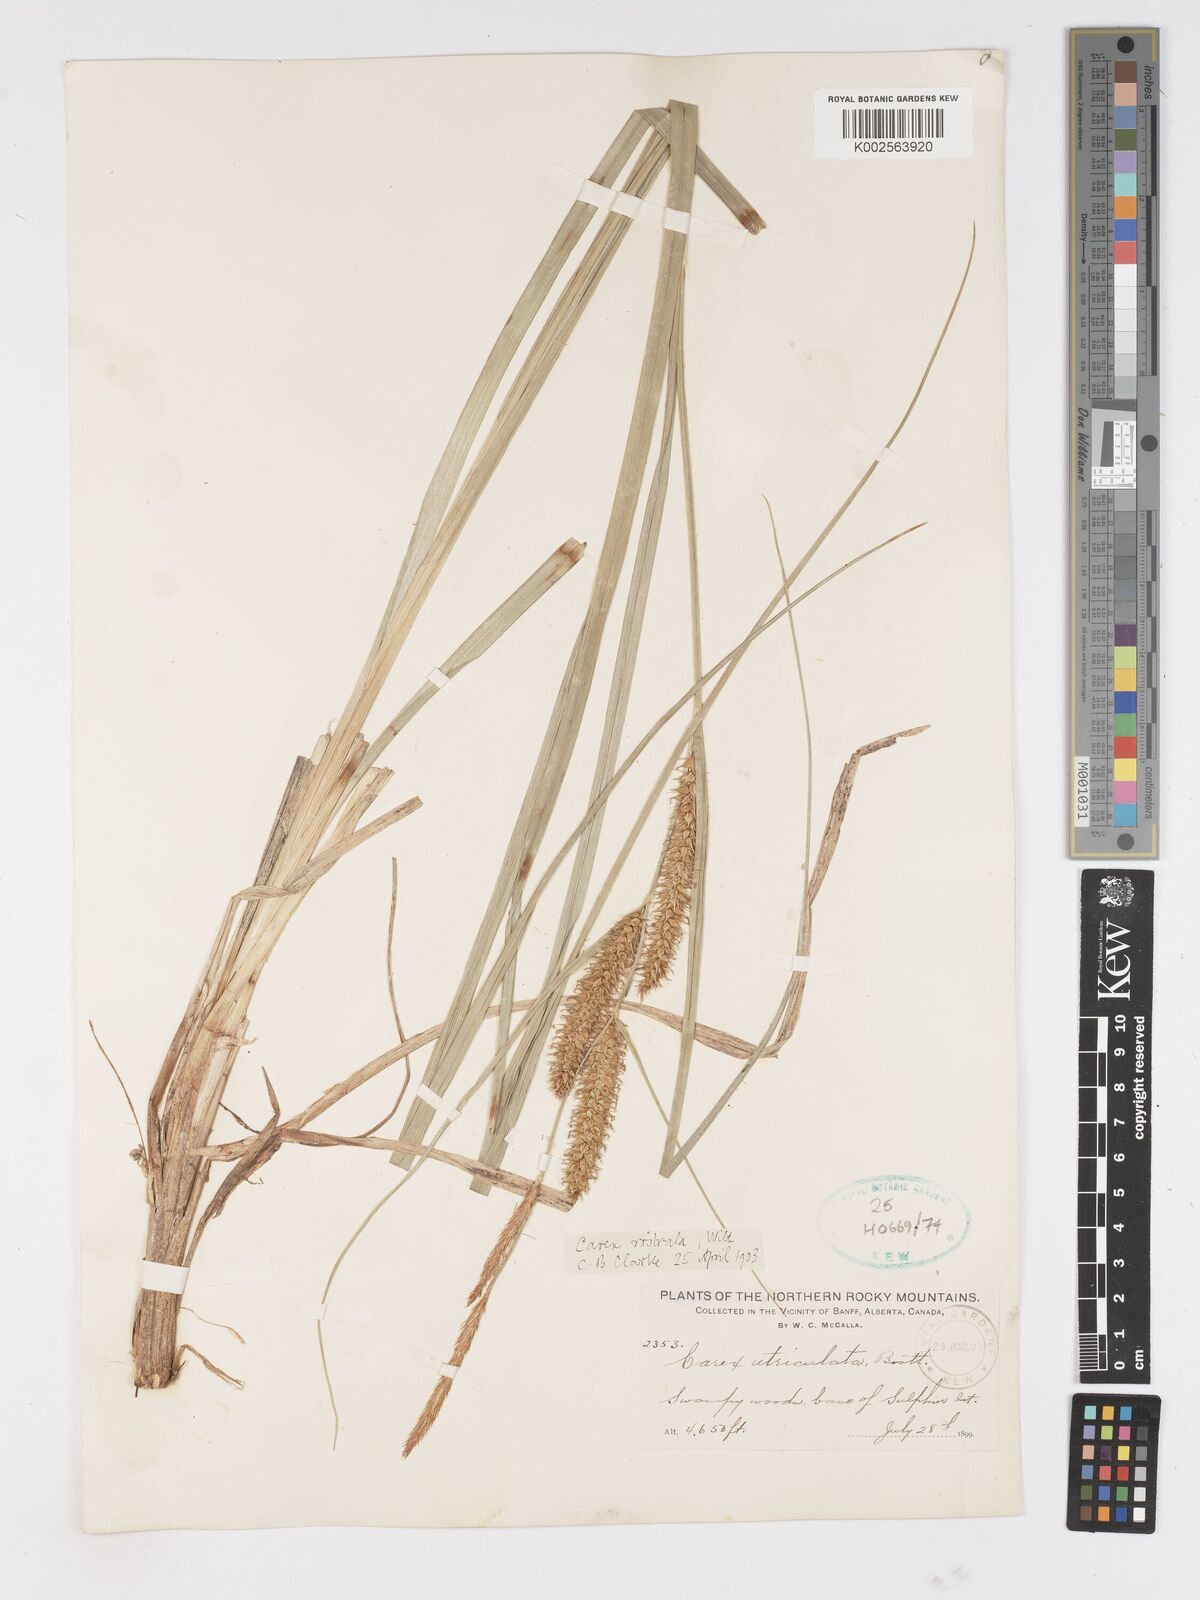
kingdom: Plantae
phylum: Tracheophyta
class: Liliopsida
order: Poales
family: Cyperaceae
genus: Carex
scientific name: Carex rostrata
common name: Bottle sedge
